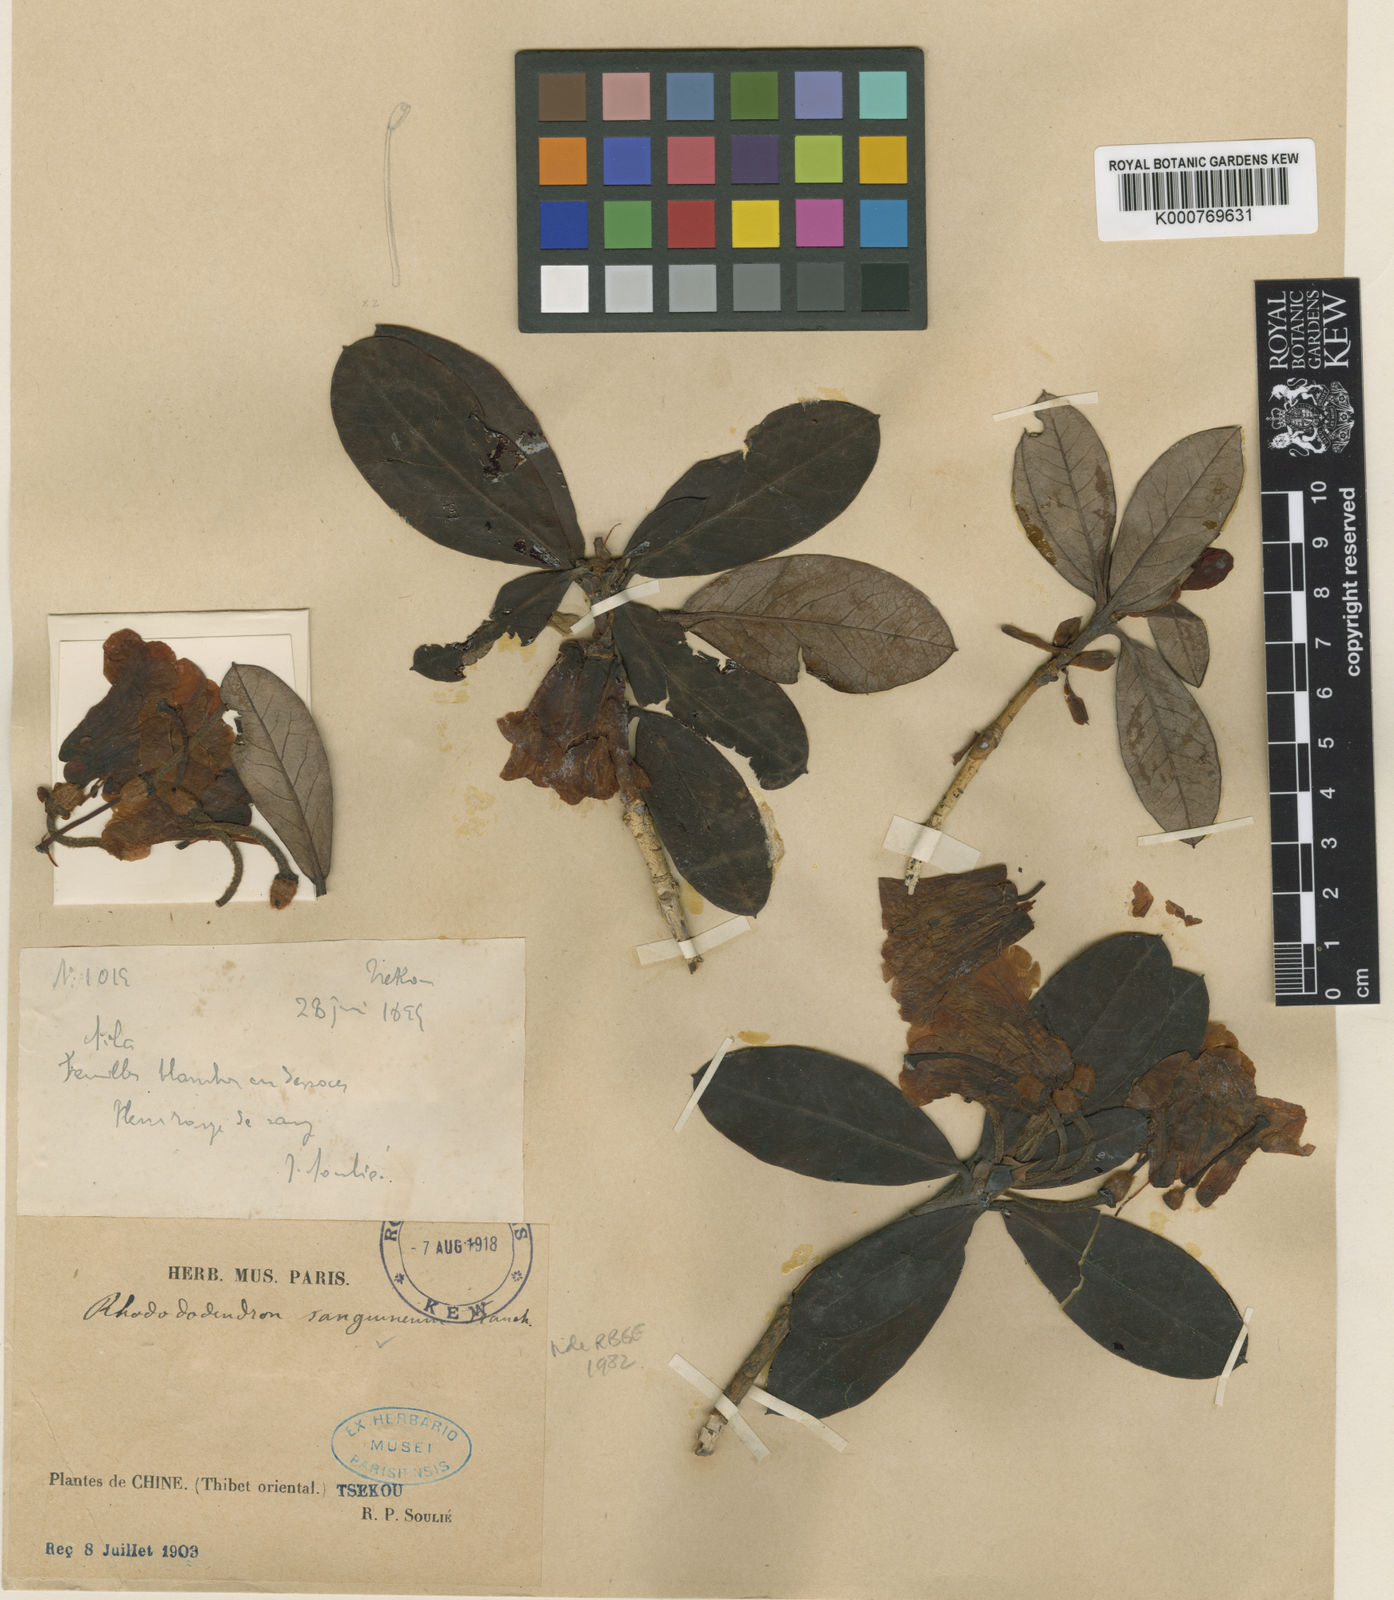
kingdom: Plantae
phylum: Tracheophyta
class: Magnoliopsida
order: Ericales
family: Ericaceae
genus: Rhododendron
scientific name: Rhododendron sanguineum
